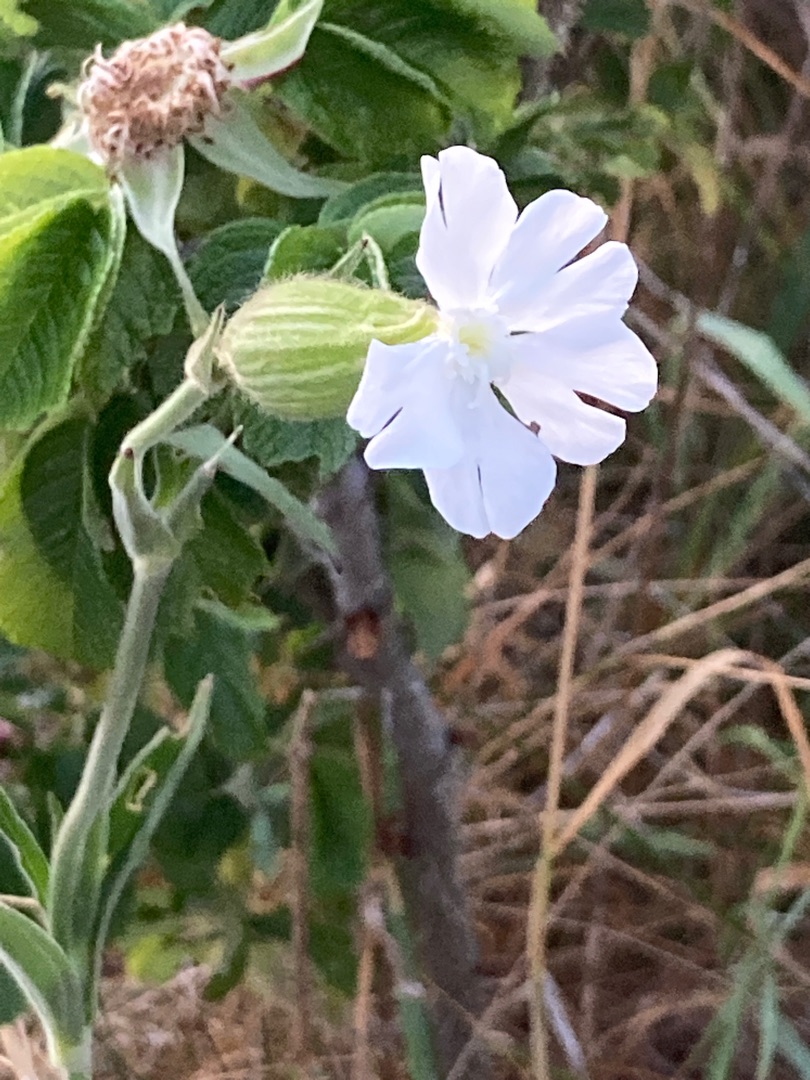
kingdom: Plantae
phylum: Tracheophyta
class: Magnoliopsida
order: Caryophyllales
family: Caryophyllaceae
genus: Silene
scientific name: Silene latifolia
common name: Aftenpragtstjerne
